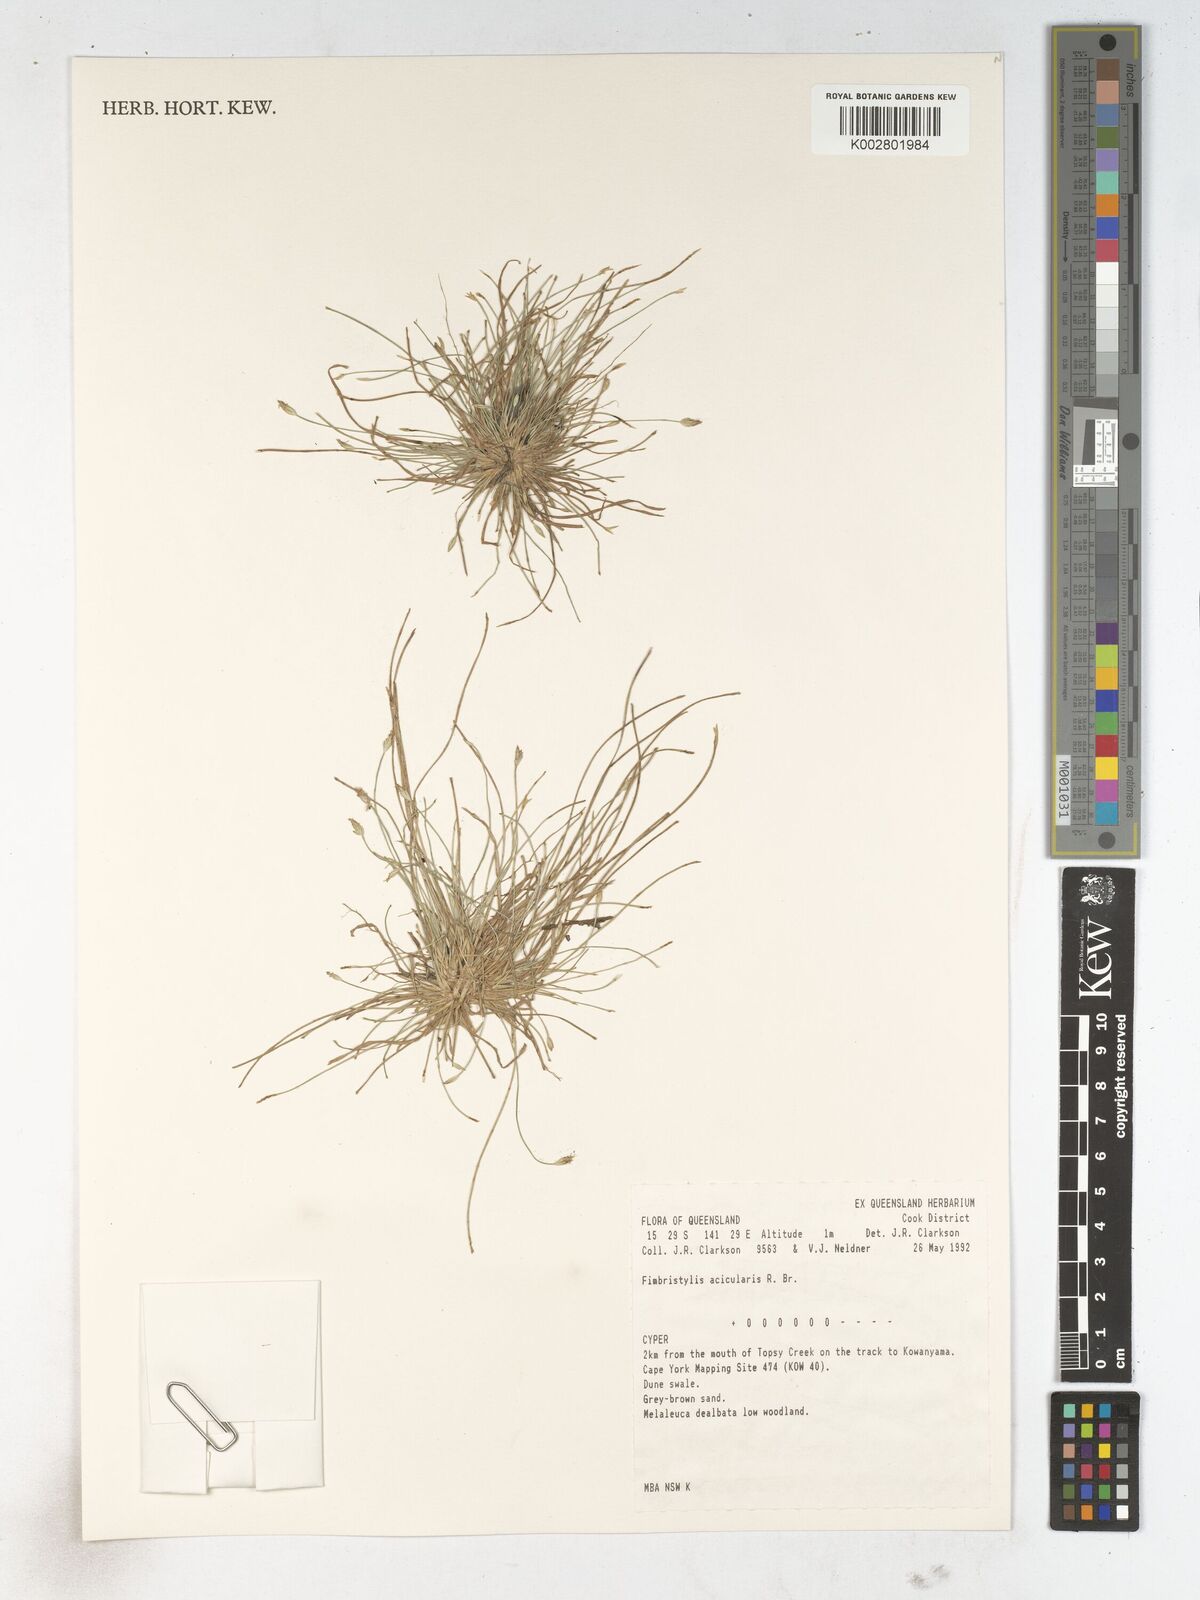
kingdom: Plantae
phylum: Tracheophyta
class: Liliopsida
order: Poales
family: Cyperaceae
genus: Fimbristylis
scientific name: Fimbristylis acicularis
